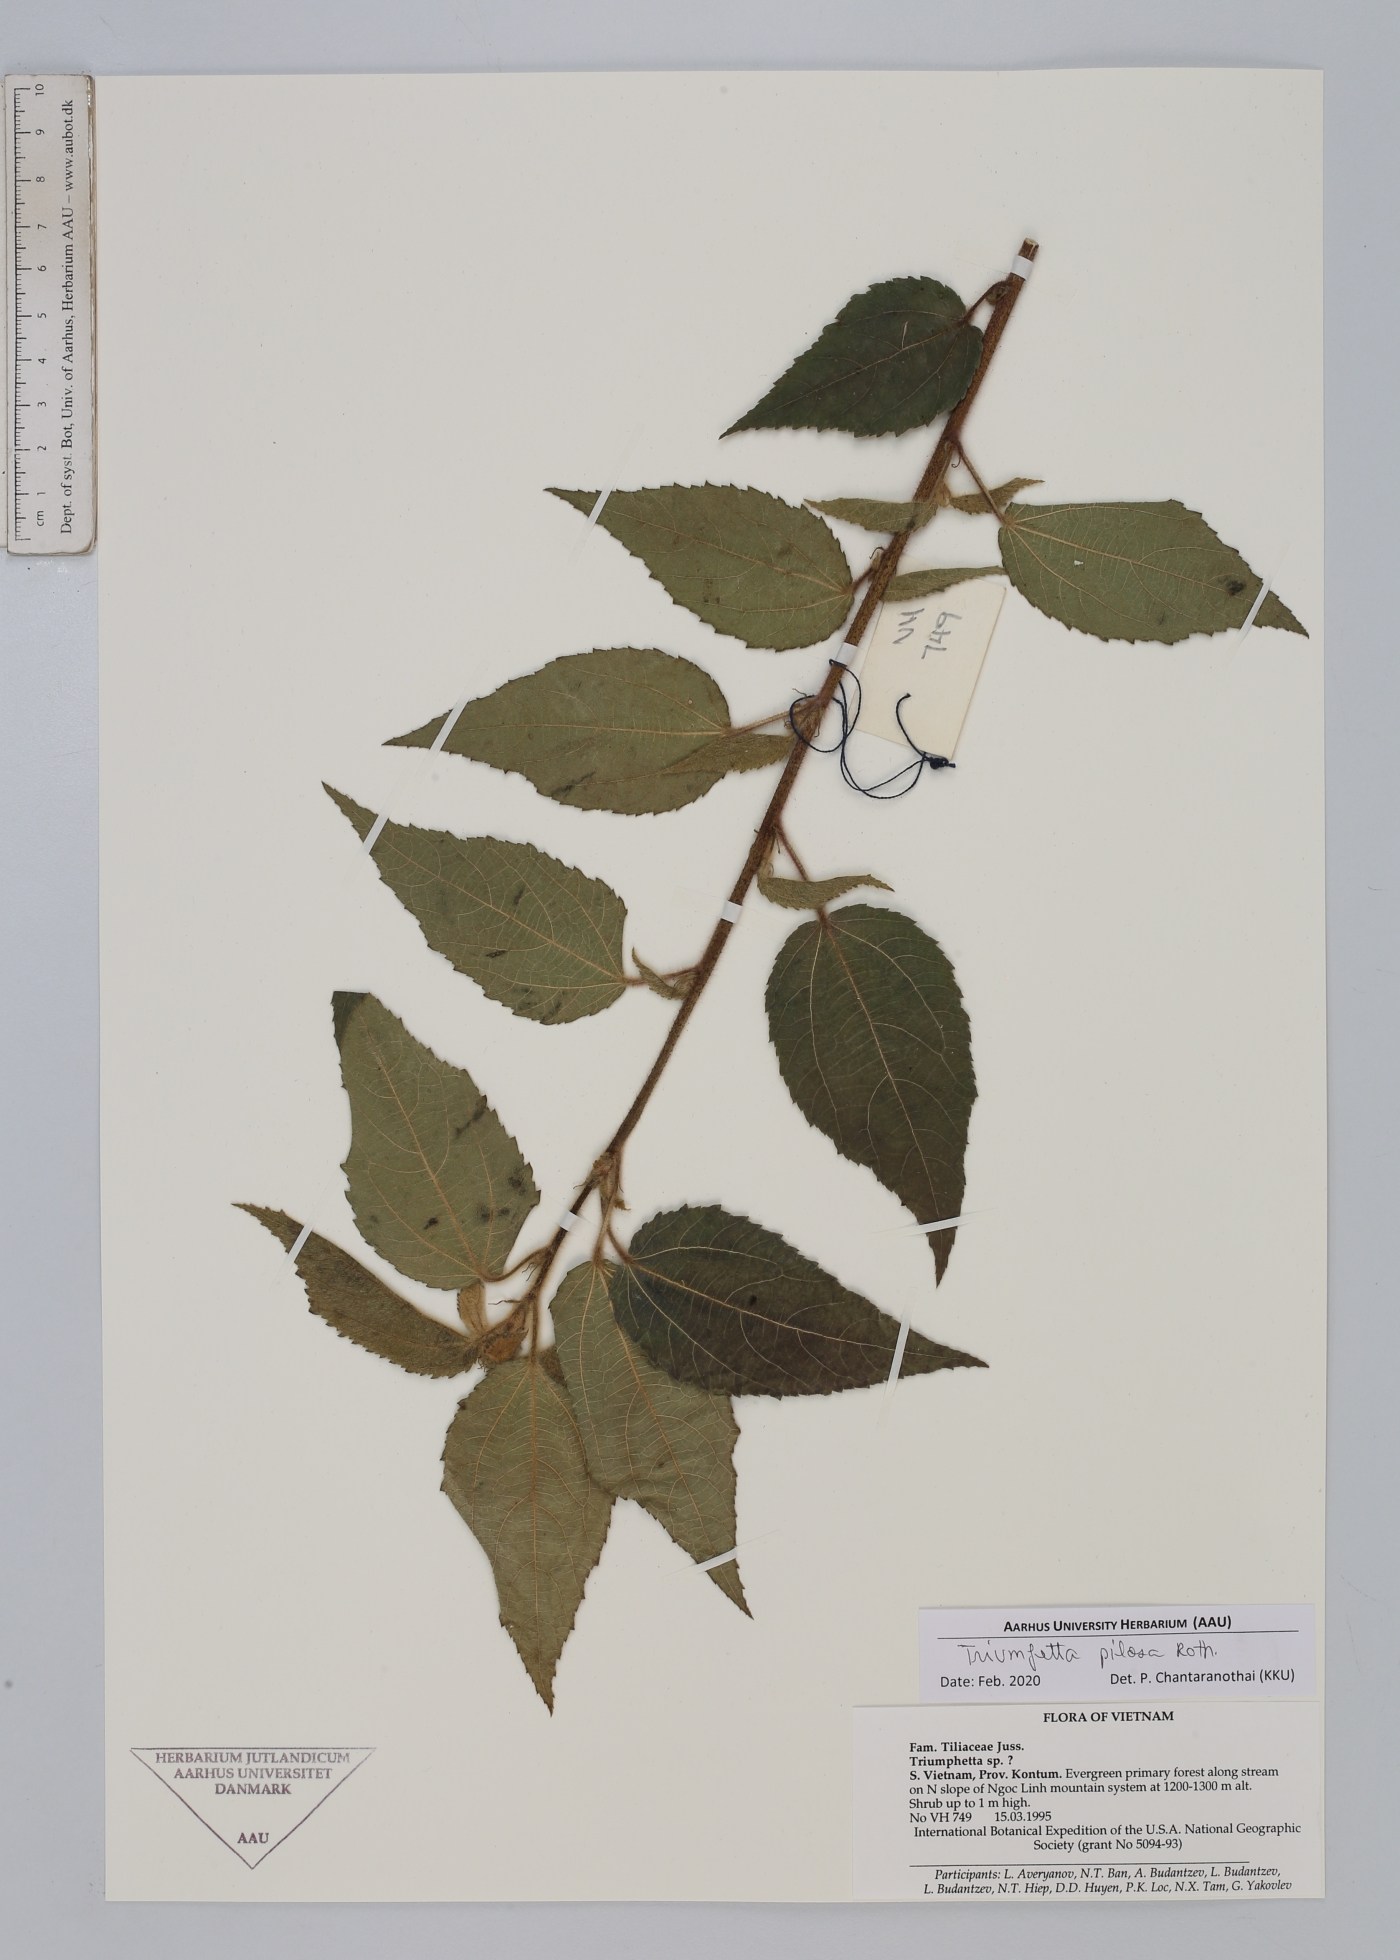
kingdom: Plantae
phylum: Tracheophyta
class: Magnoliopsida
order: Malvales
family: Malvaceae
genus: Triumfetta
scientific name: Triumfetta pilosa
